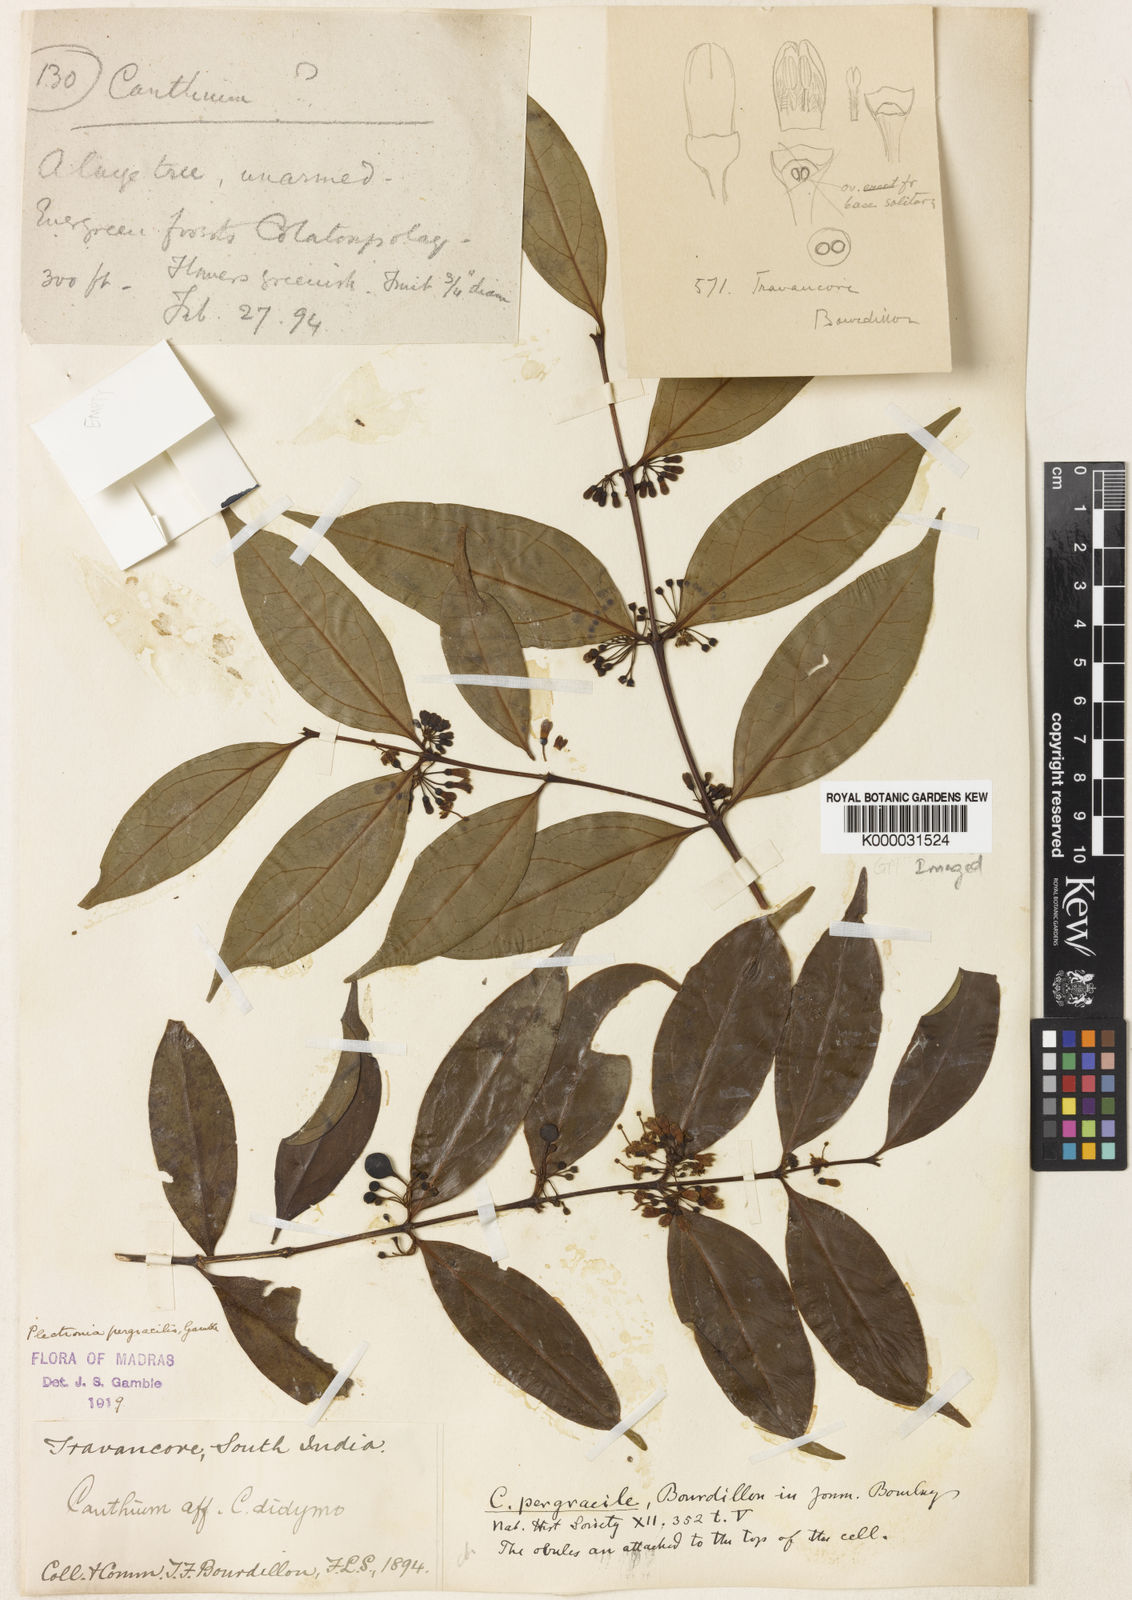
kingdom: Plantae
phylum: Tracheophyta
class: Magnoliopsida
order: Gentianales
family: Rubiaceae
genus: Psydrax
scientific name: Psydrax pergracilis
